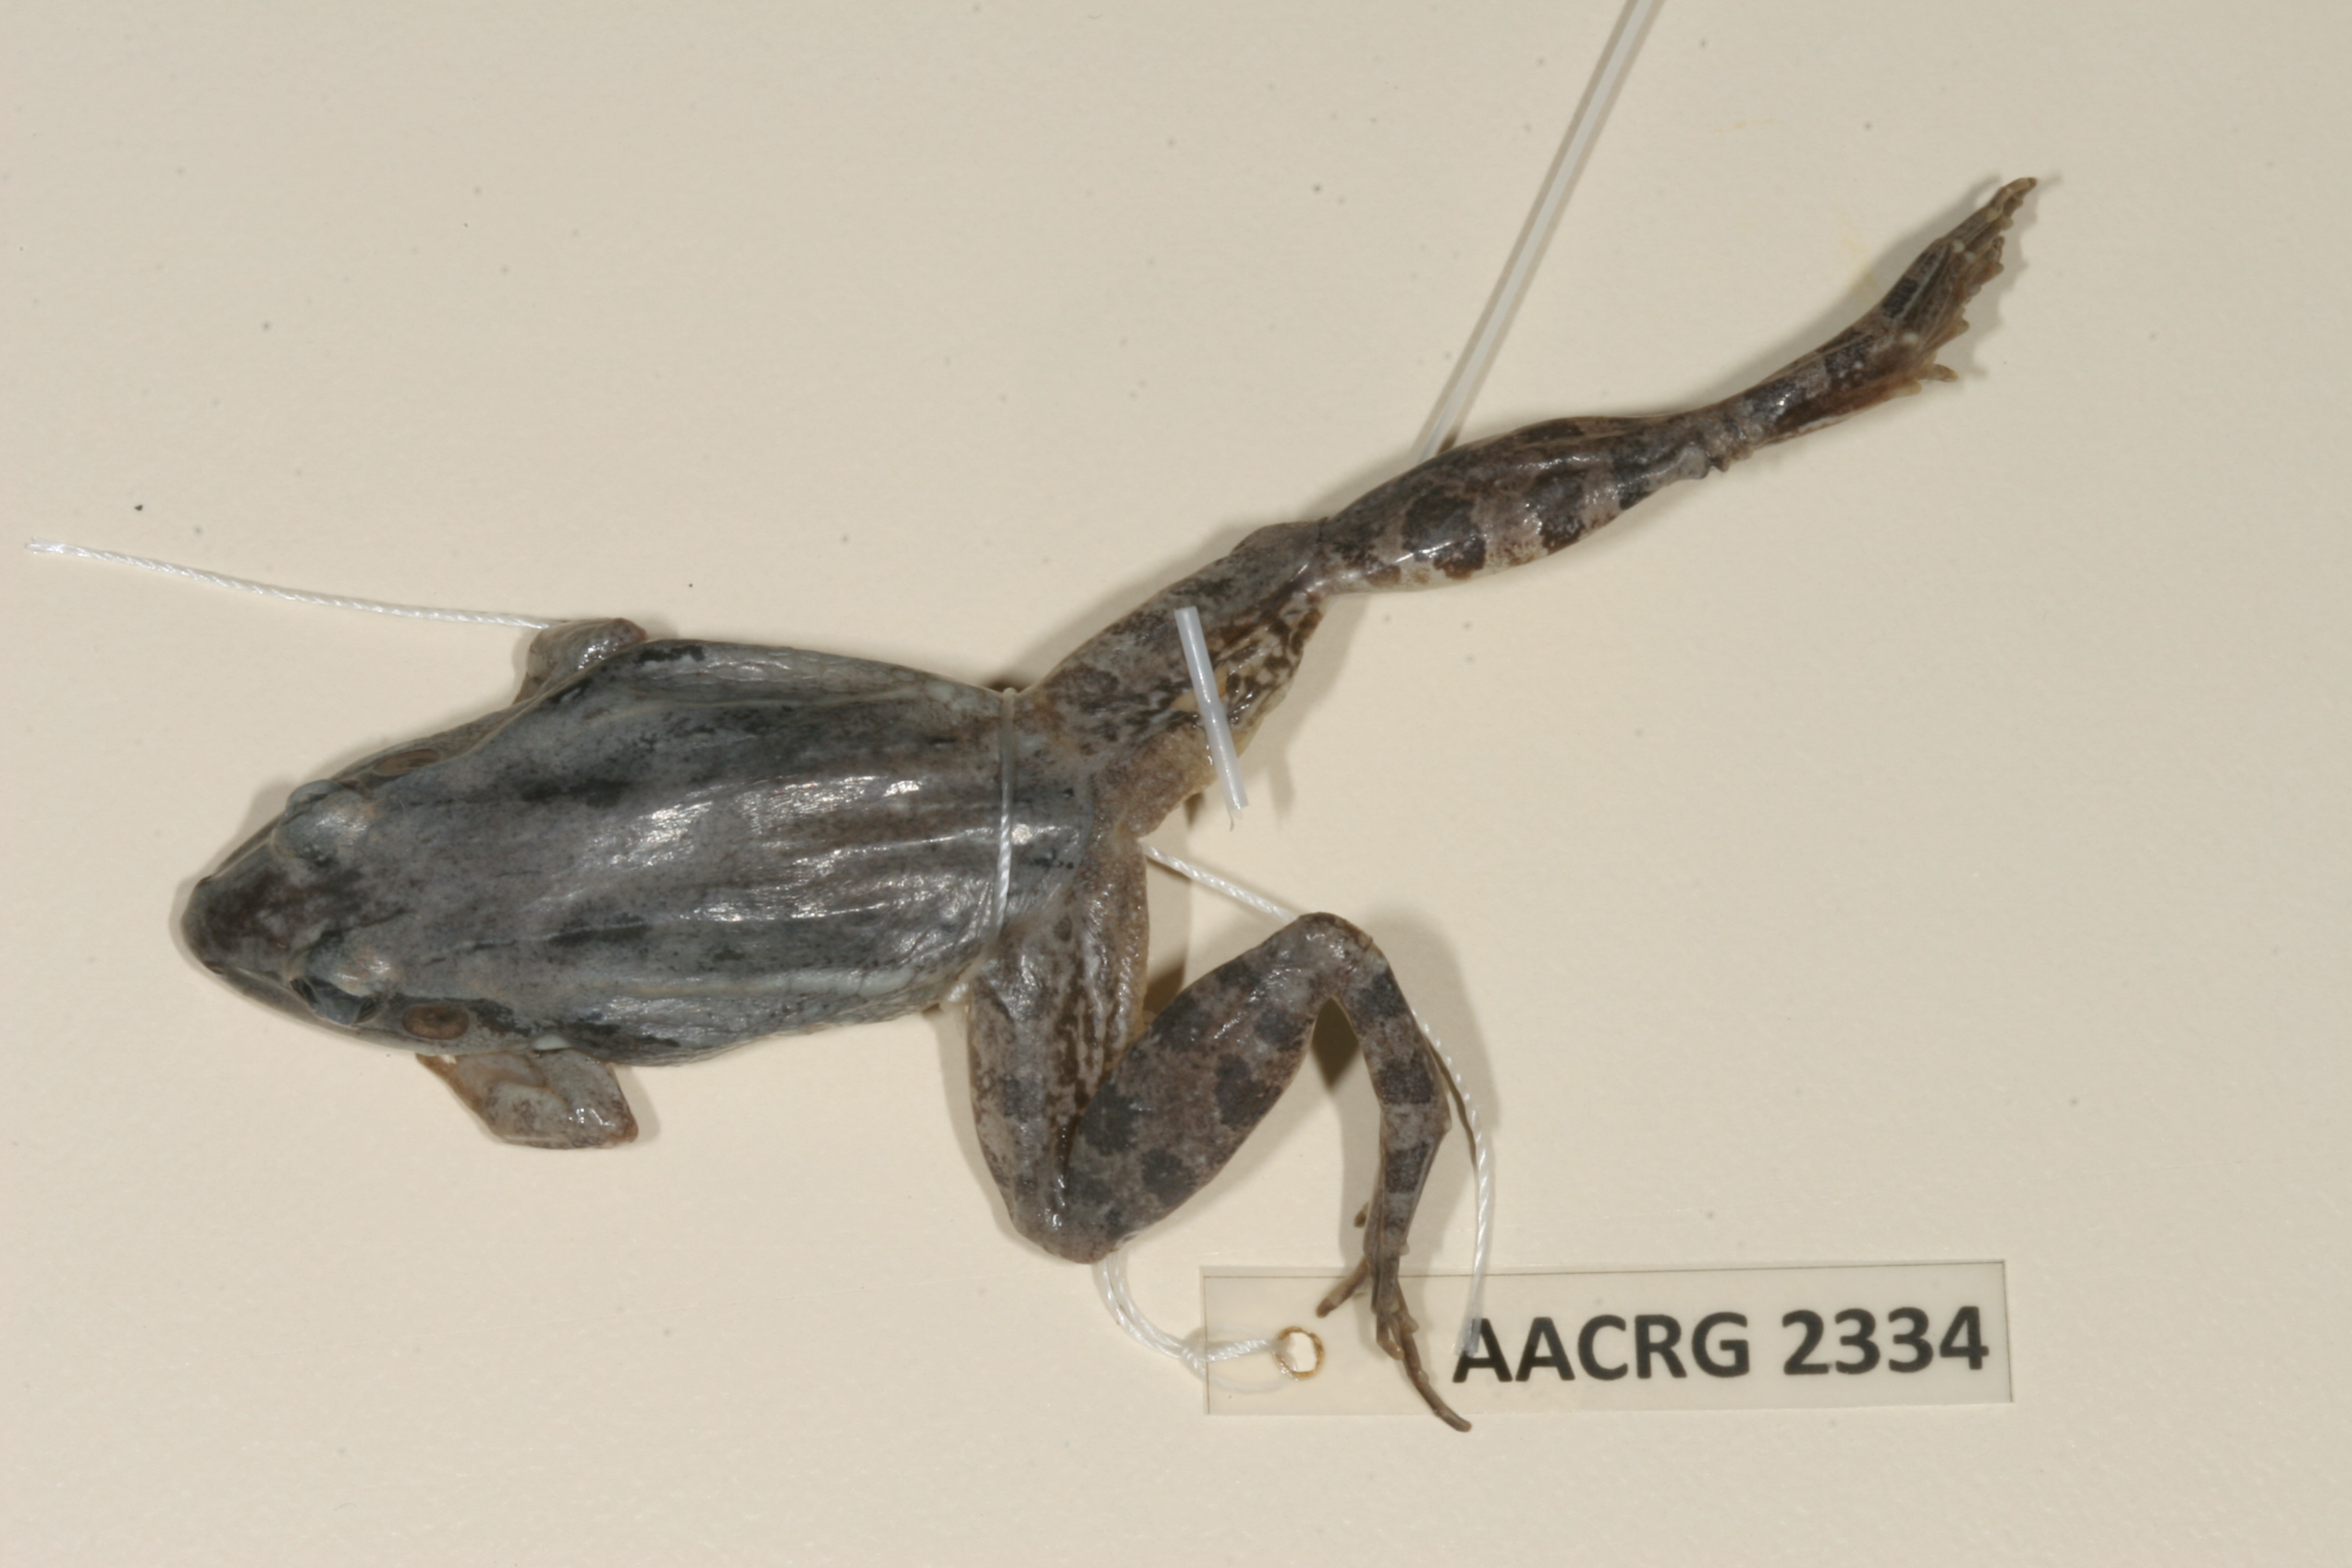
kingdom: Animalia
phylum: Chordata
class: Amphibia
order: Anura
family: Ptychadenidae
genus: Ptychadena
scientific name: Ptychadena anchietae
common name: Anchieta's ridged frog
